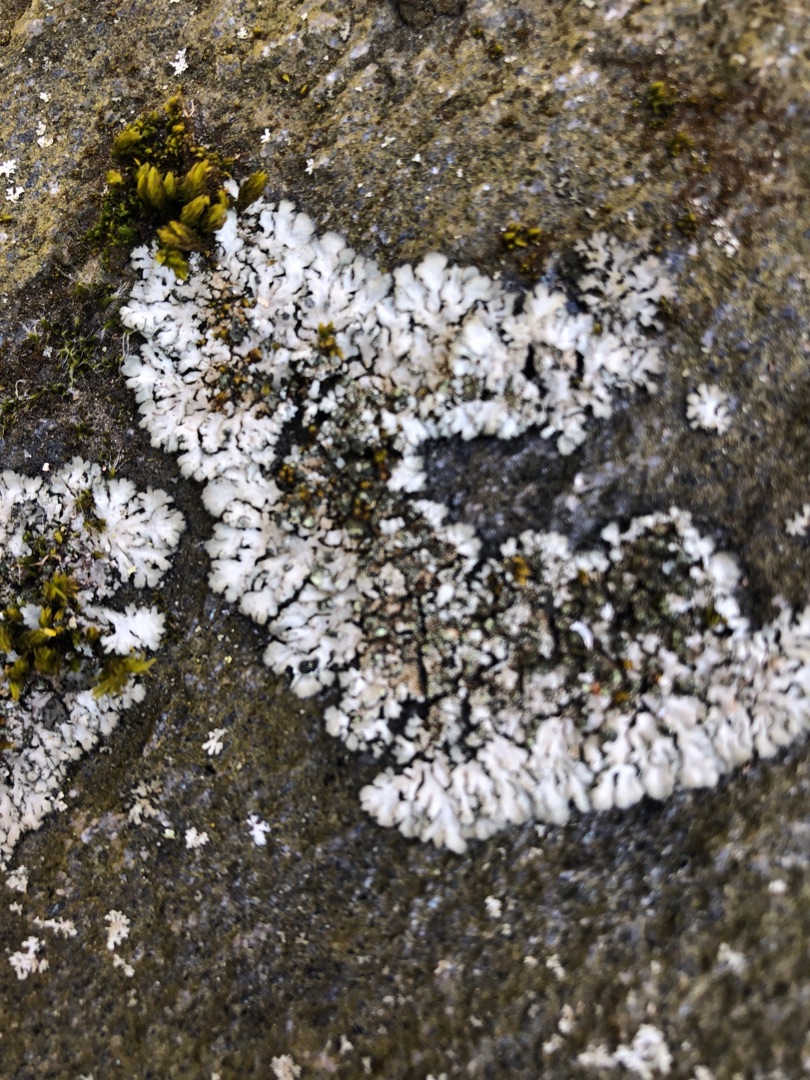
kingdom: Fungi
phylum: Ascomycota
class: Lecanoromycetes
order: Caliciales
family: Physciaceae
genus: Physcia
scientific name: Physcia caesia
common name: Blågrå rosetlav
